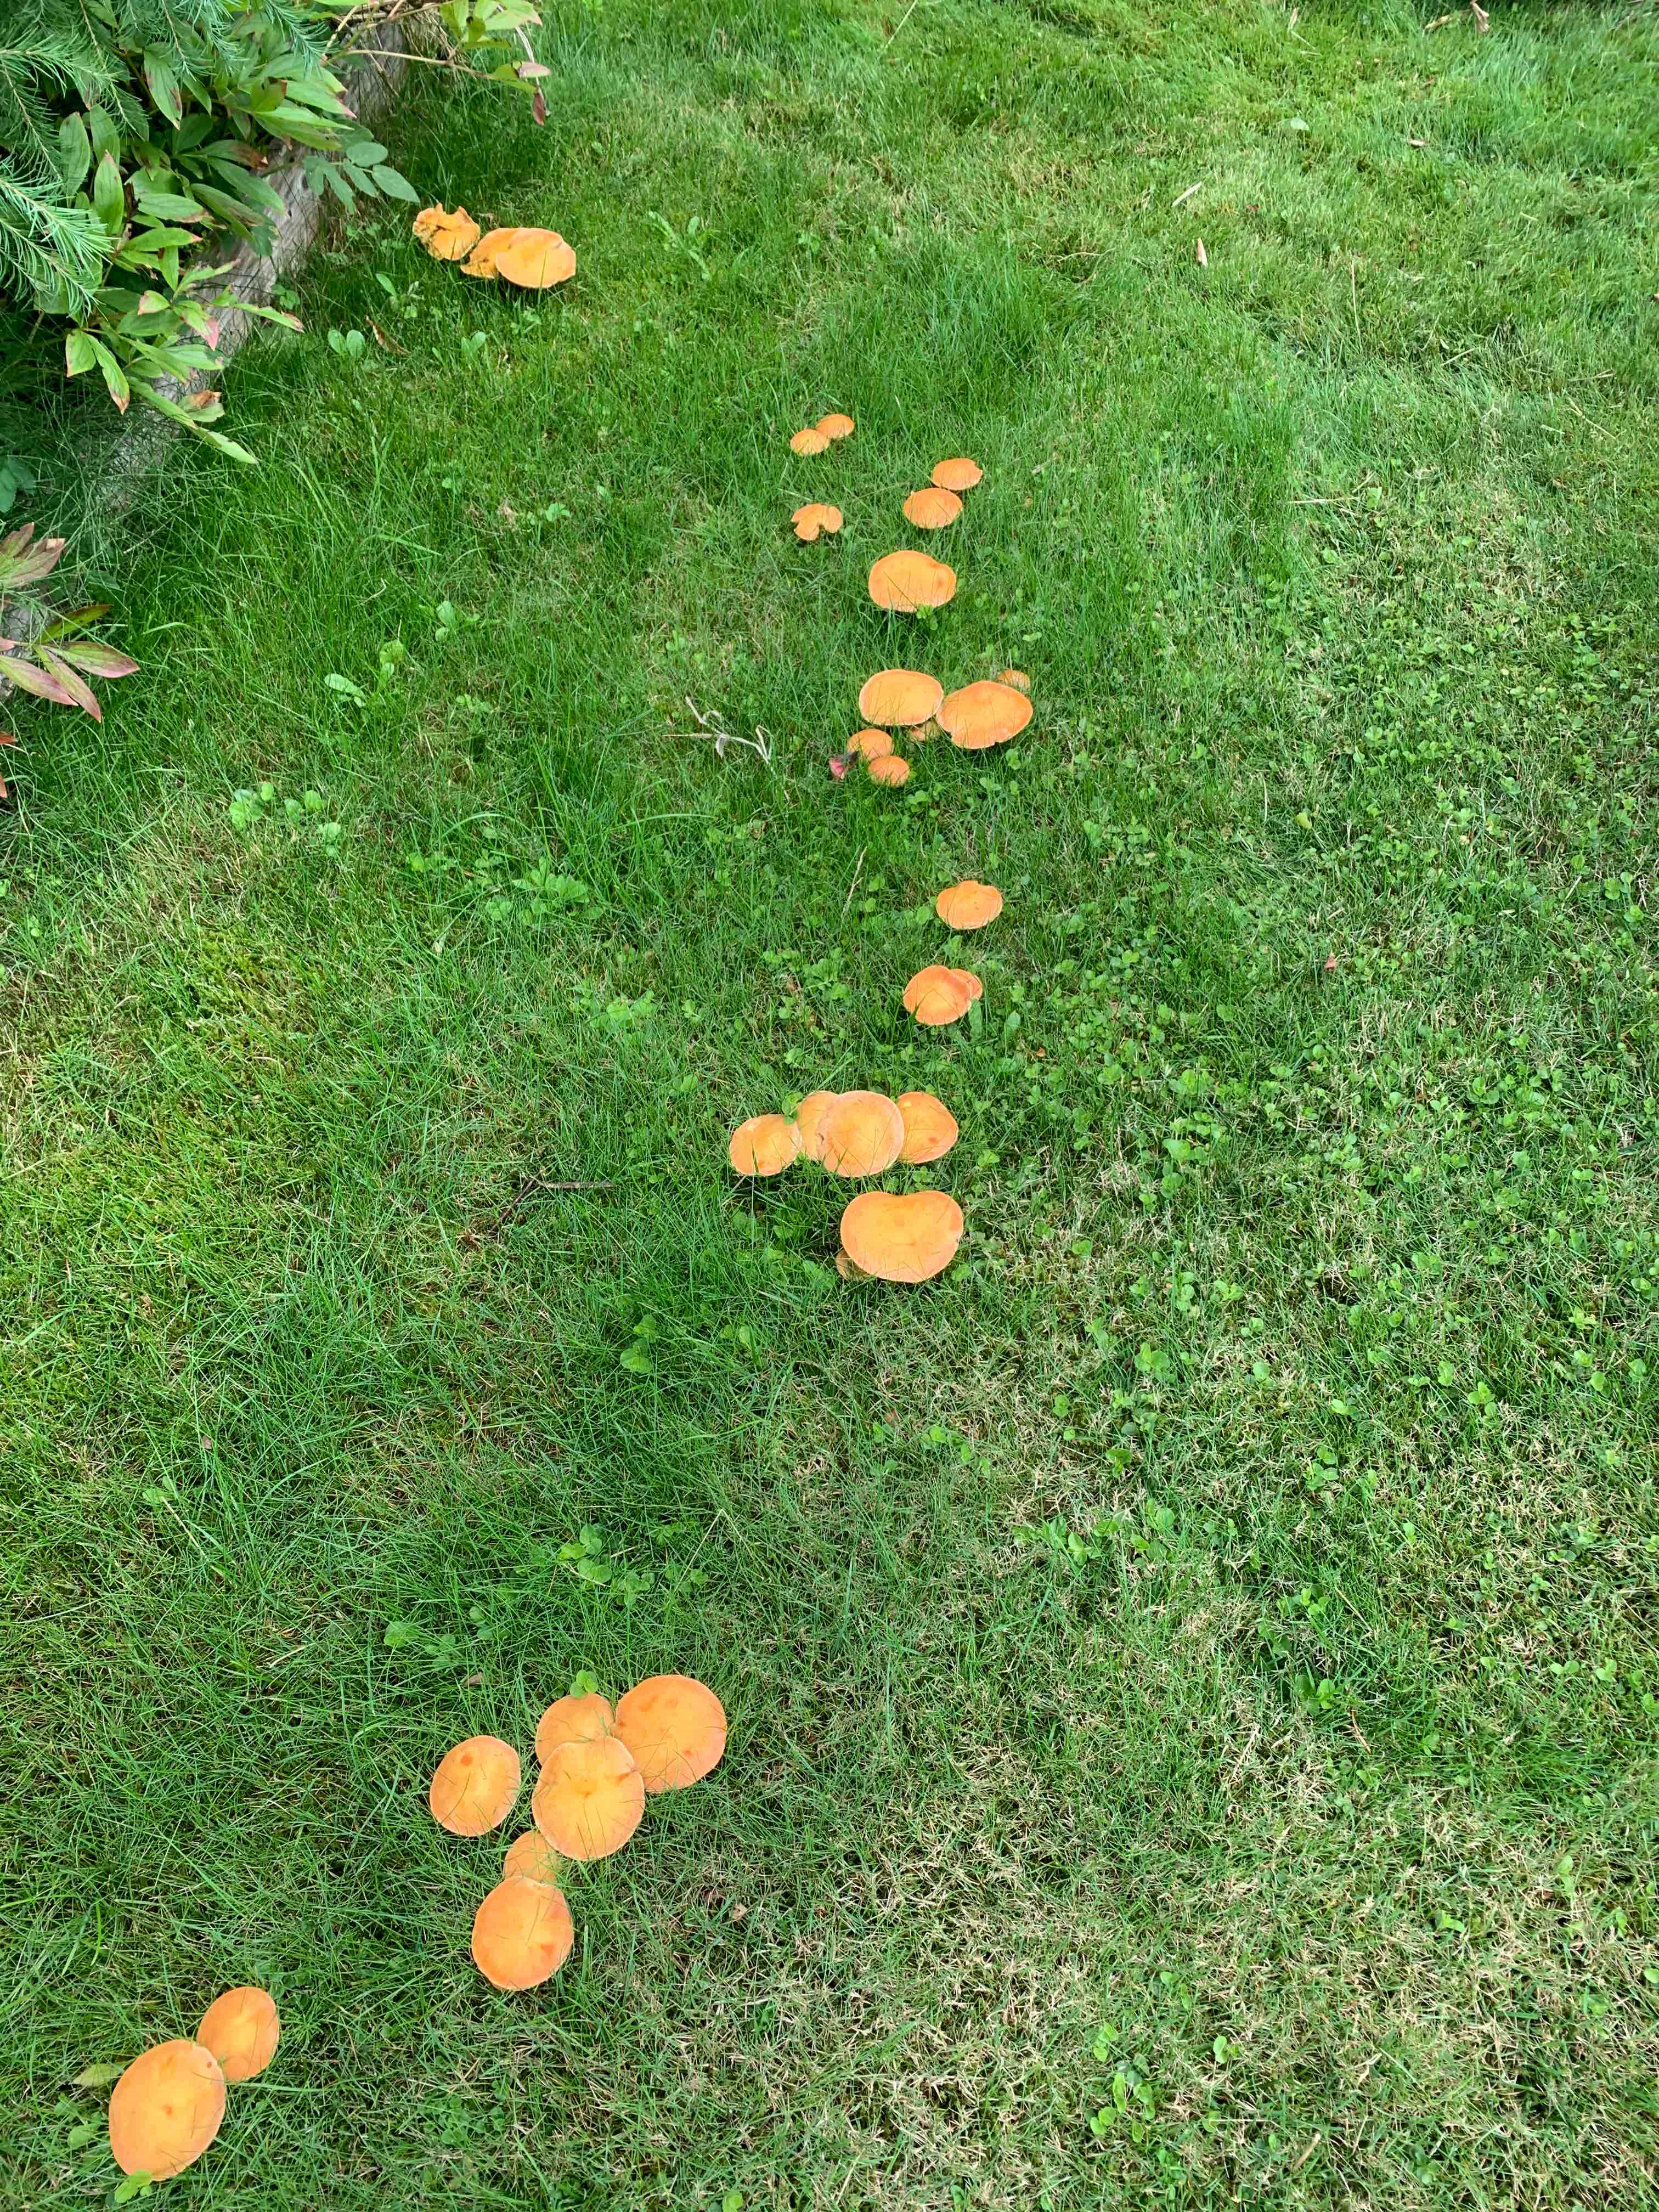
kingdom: Fungi
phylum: Basidiomycota
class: Agaricomycetes
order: Boletales
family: Suillaceae
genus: Suillus
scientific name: Suillus grevillei
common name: lærke-slimrørhat
